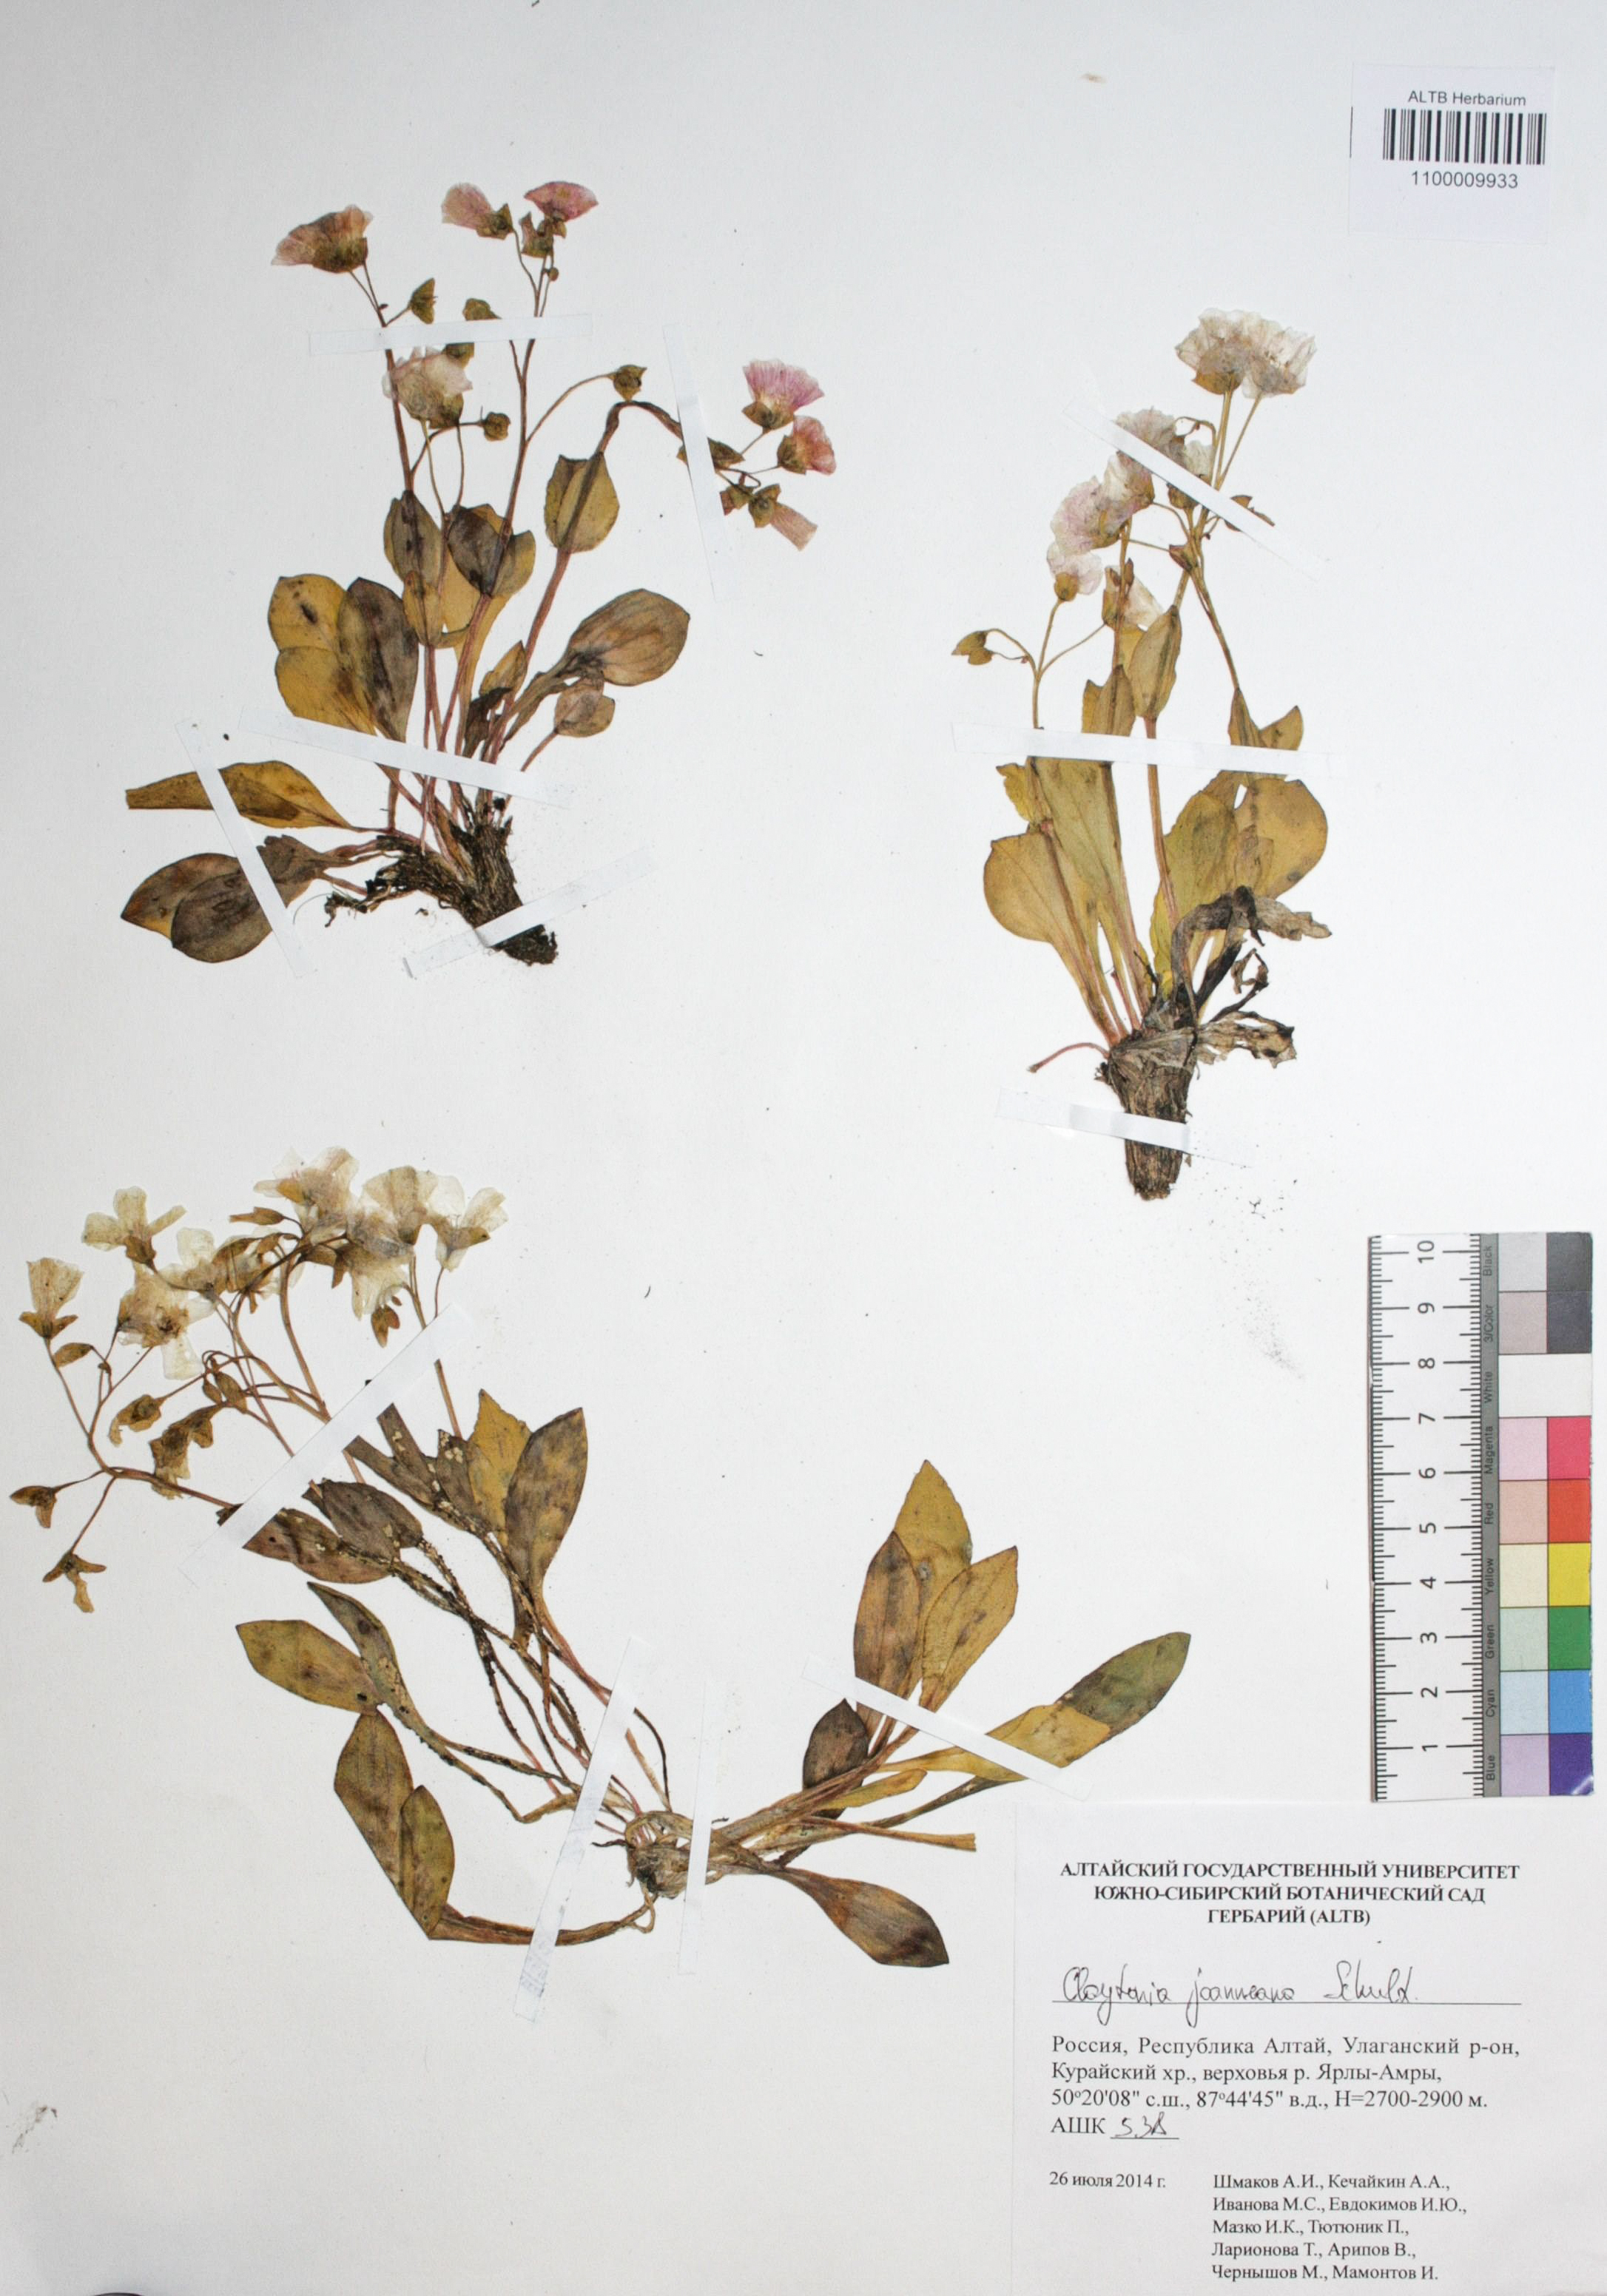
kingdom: Plantae
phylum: Tracheophyta
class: Magnoliopsida
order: Caryophyllales
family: Montiaceae
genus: Claytonia
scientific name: Claytonia joanneana
